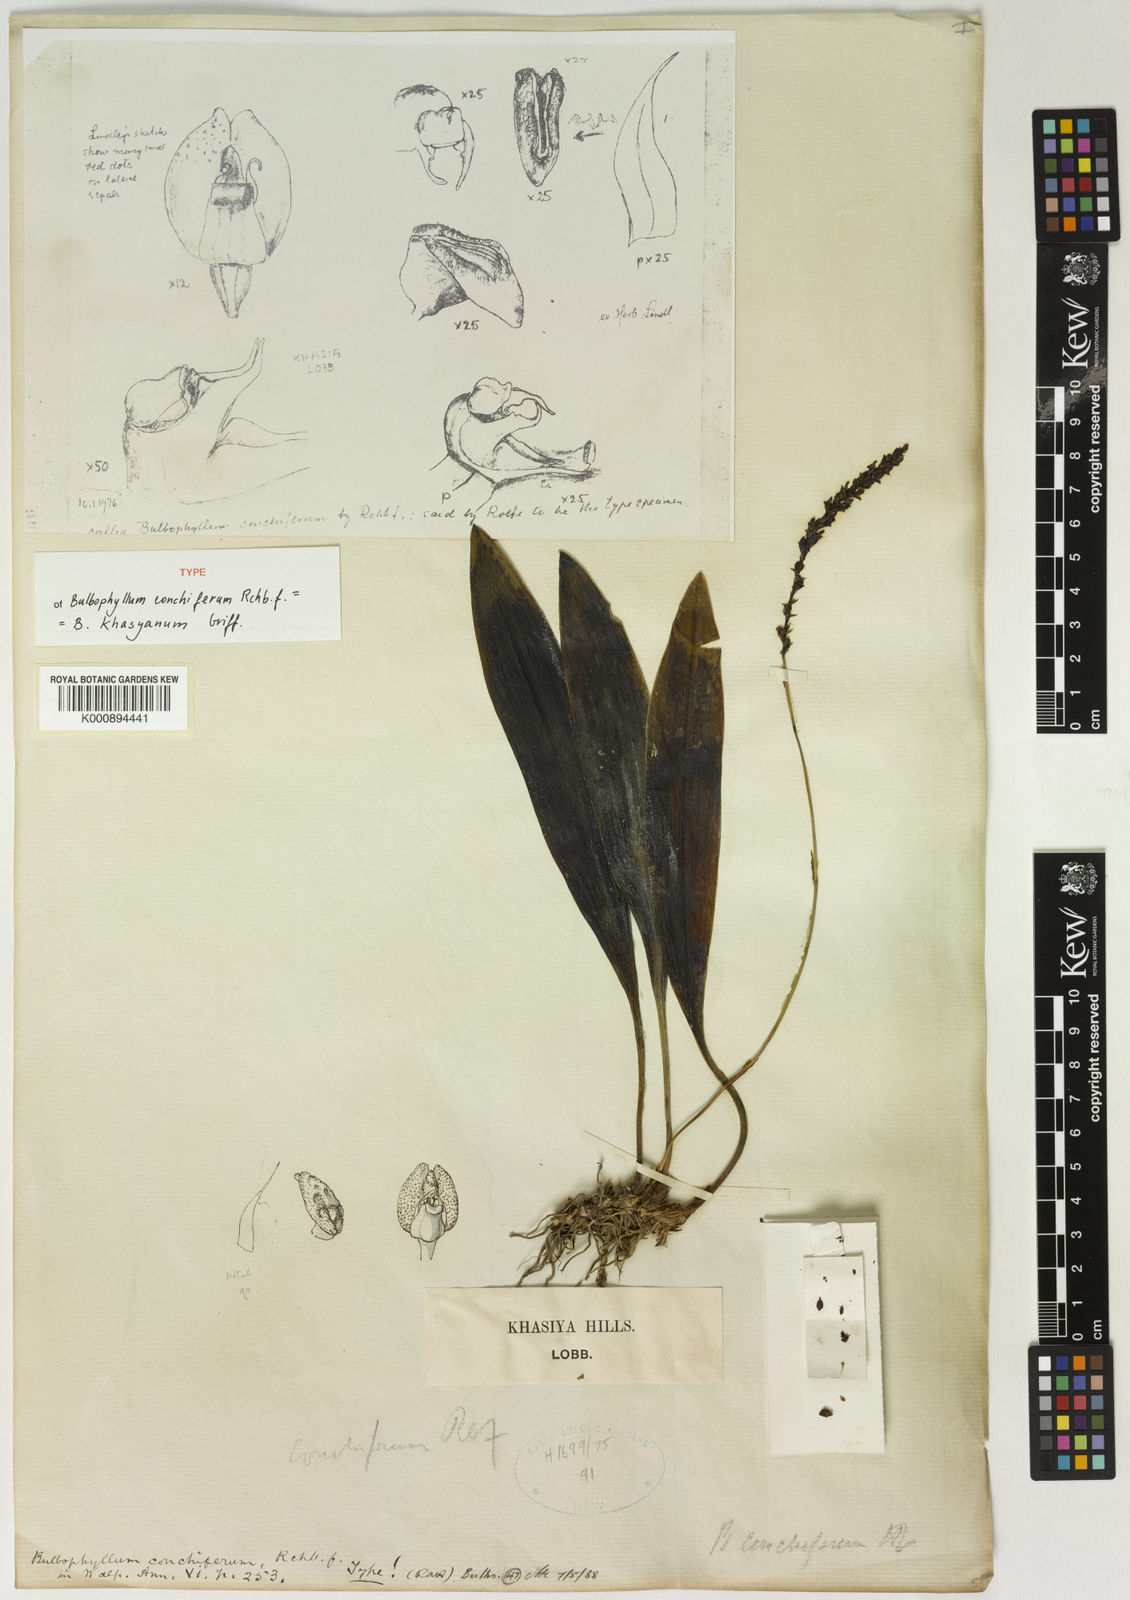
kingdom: Plantae
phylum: Tracheophyta
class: Liliopsida
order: Asparagales
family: Orchidaceae
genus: Bulbophyllum
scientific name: Bulbophyllum khasyanum
